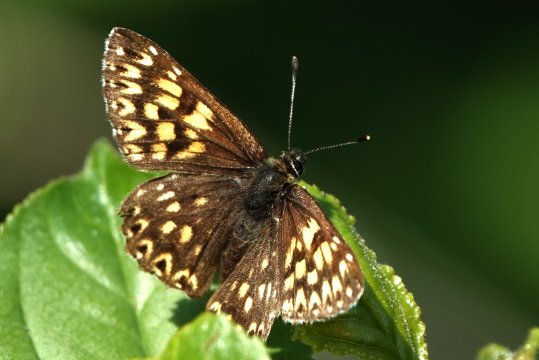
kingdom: Animalia
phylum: Arthropoda
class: Insecta
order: Lepidoptera
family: Riodinidae
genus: Hamearis
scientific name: Hamearis lucina
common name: Duke of Burgundy
